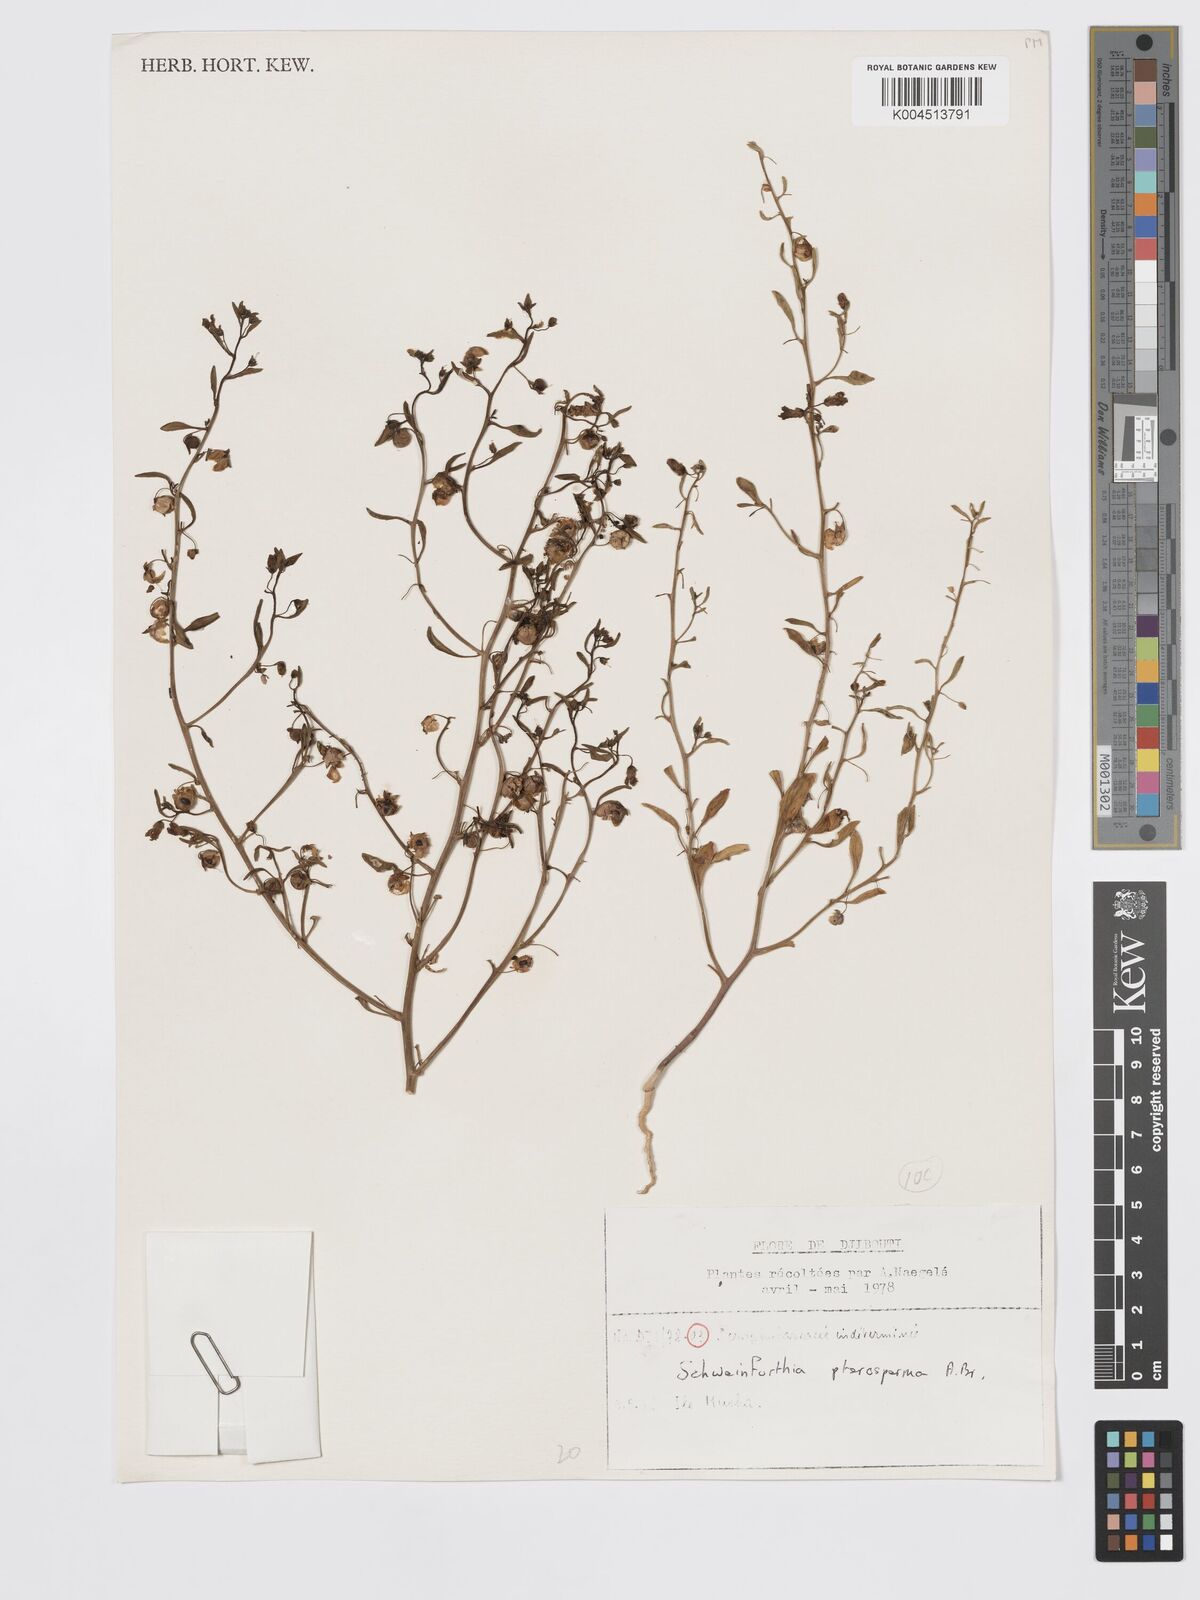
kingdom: Plantae
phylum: Tracheophyta
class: Magnoliopsida
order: Lamiales
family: Plantaginaceae
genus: Schweinfurthia
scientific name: Schweinfurthia pterosperma
